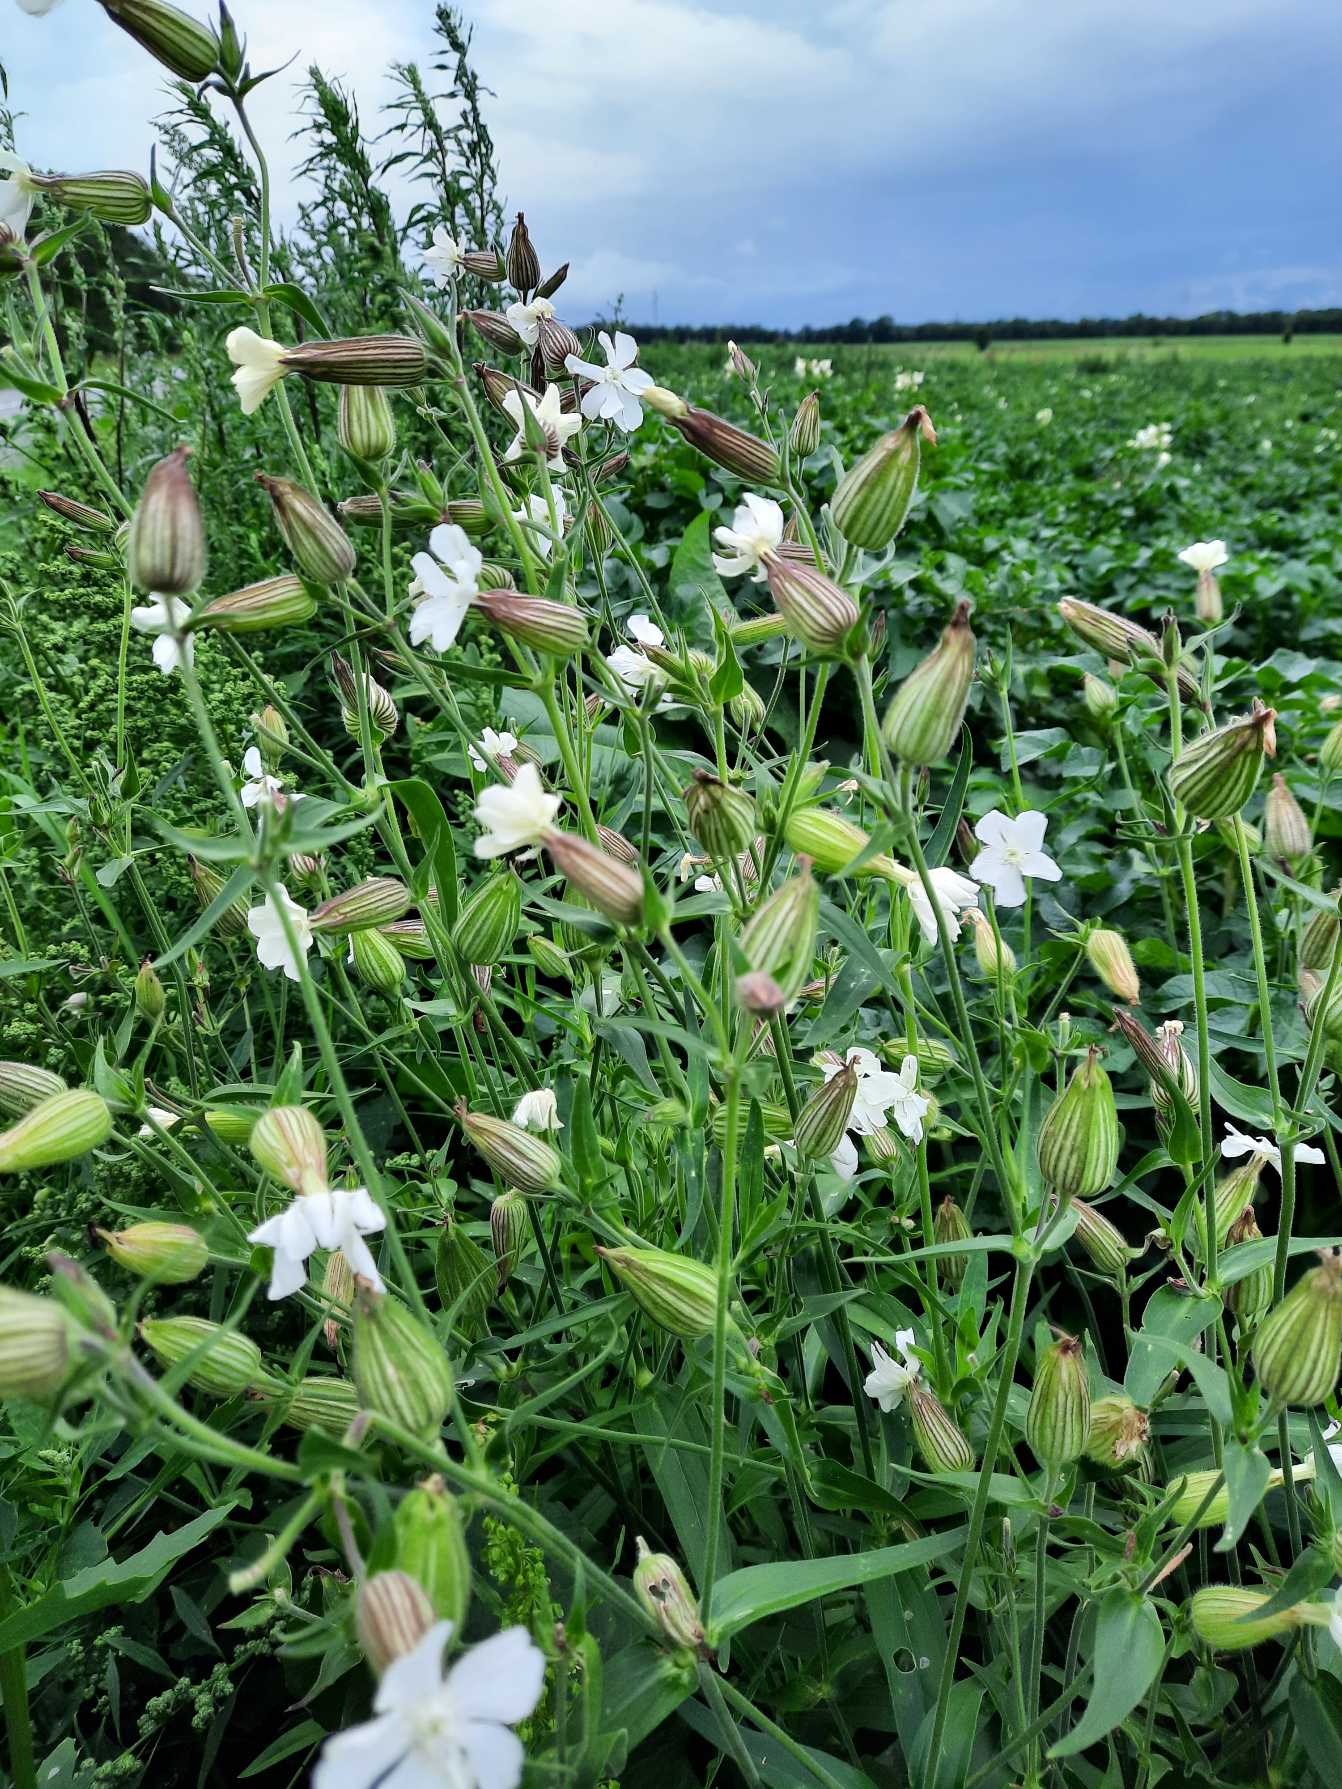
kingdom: Plantae
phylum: Tracheophyta
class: Magnoliopsida
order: Caryophyllales
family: Caryophyllaceae
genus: Silene
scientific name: Silene latifolia
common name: Aftenpragtstjerne
